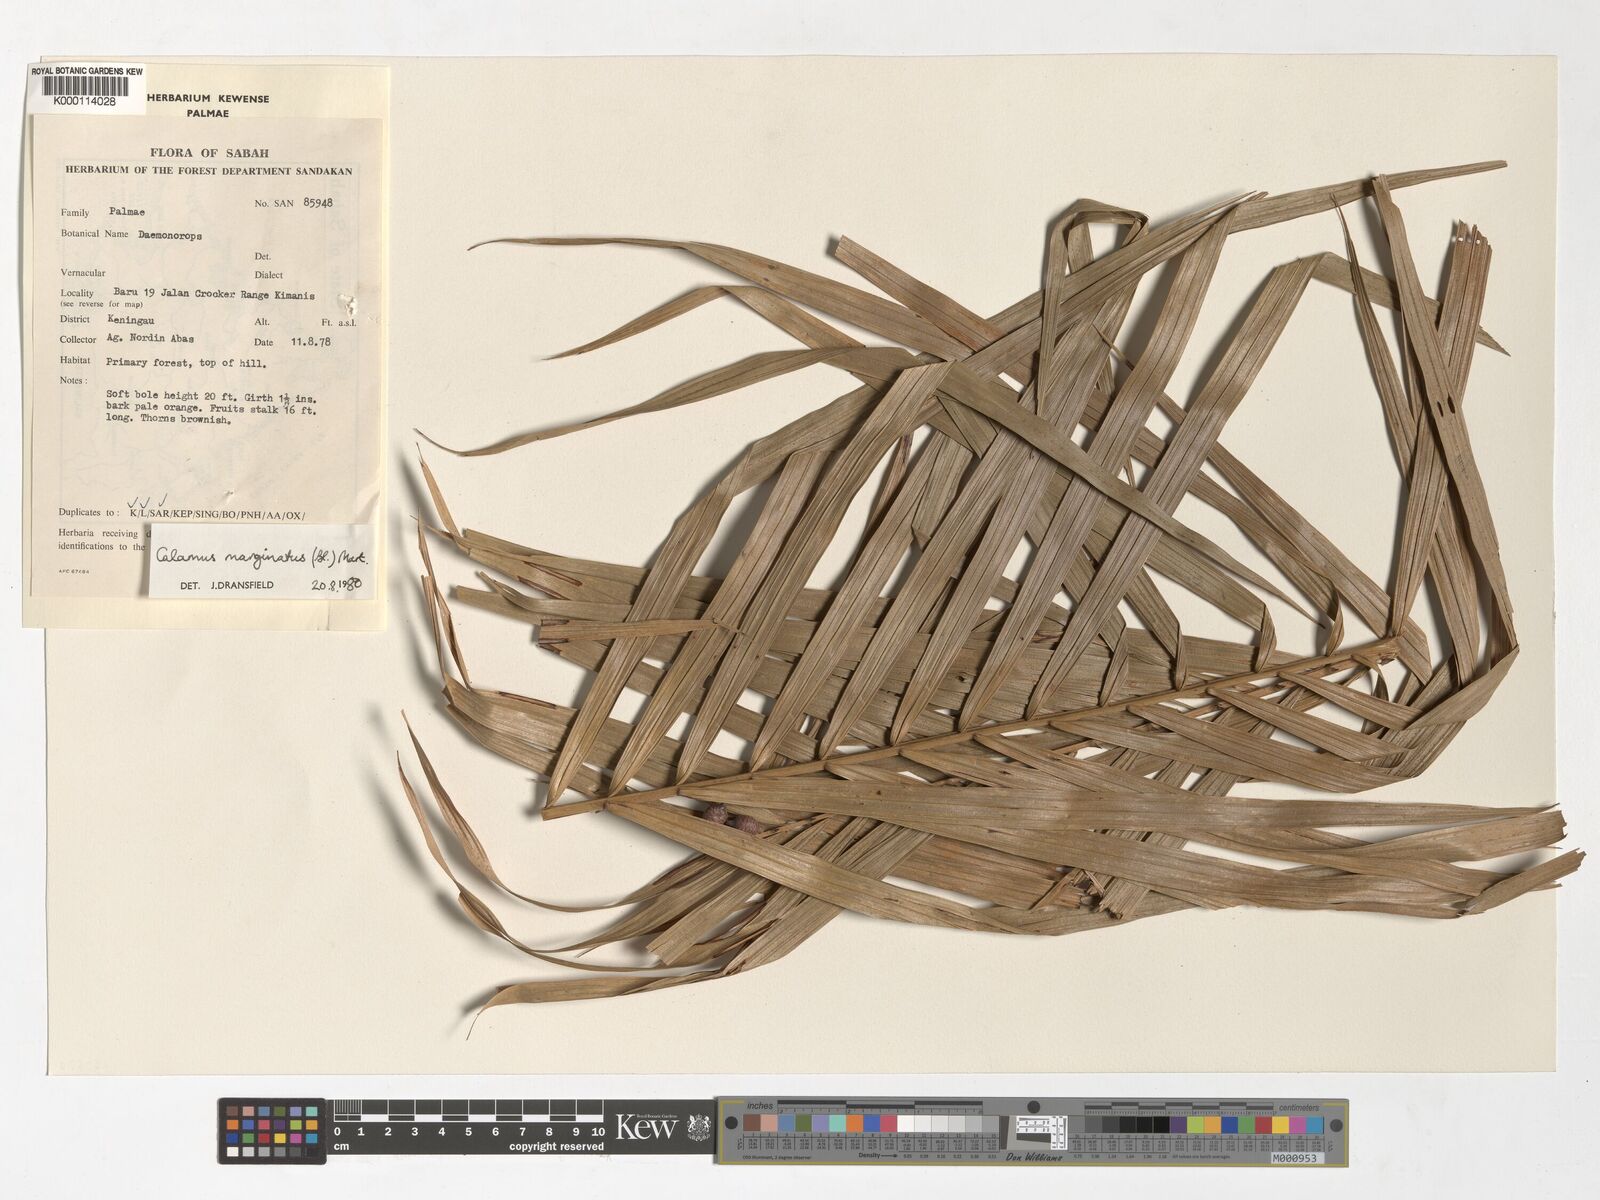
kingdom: Plantae
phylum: Tracheophyta
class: Liliopsida
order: Arecales
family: Arecaceae
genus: Calamus
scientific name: Calamus
